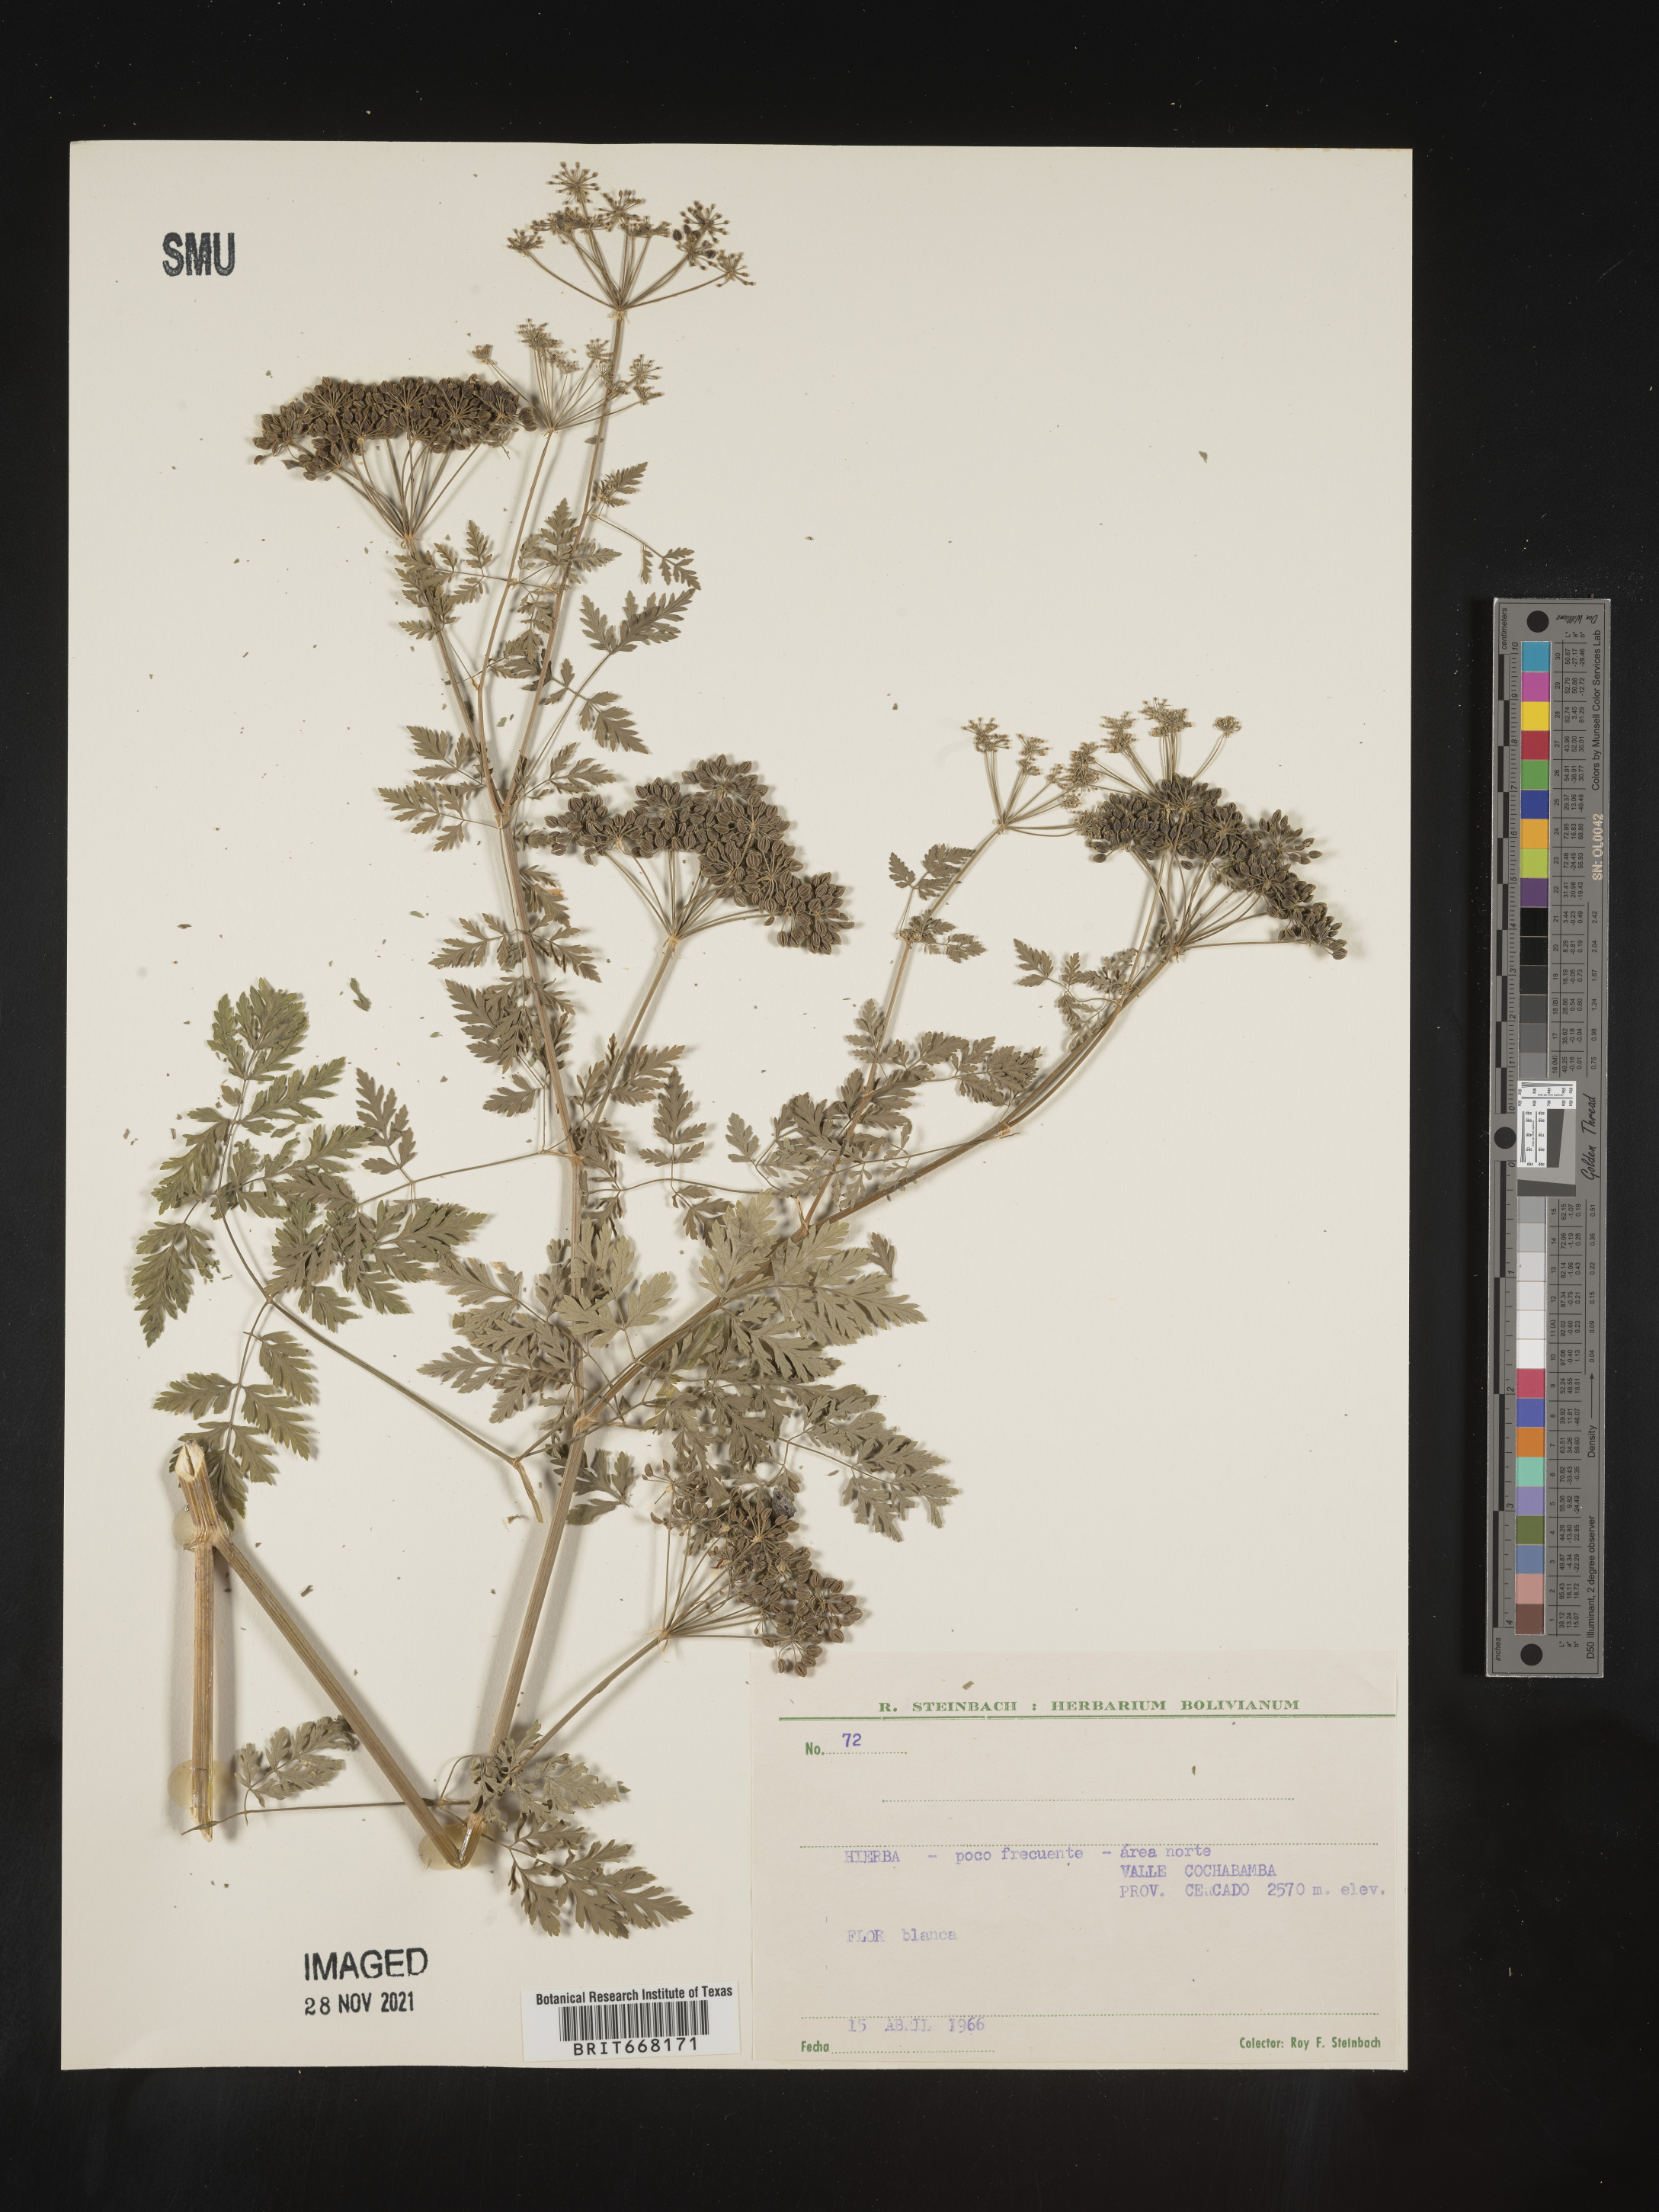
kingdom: Plantae
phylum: Tracheophyta
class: Magnoliopsida
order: Apiales
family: Apiaceae
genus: Conium
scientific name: Conium
